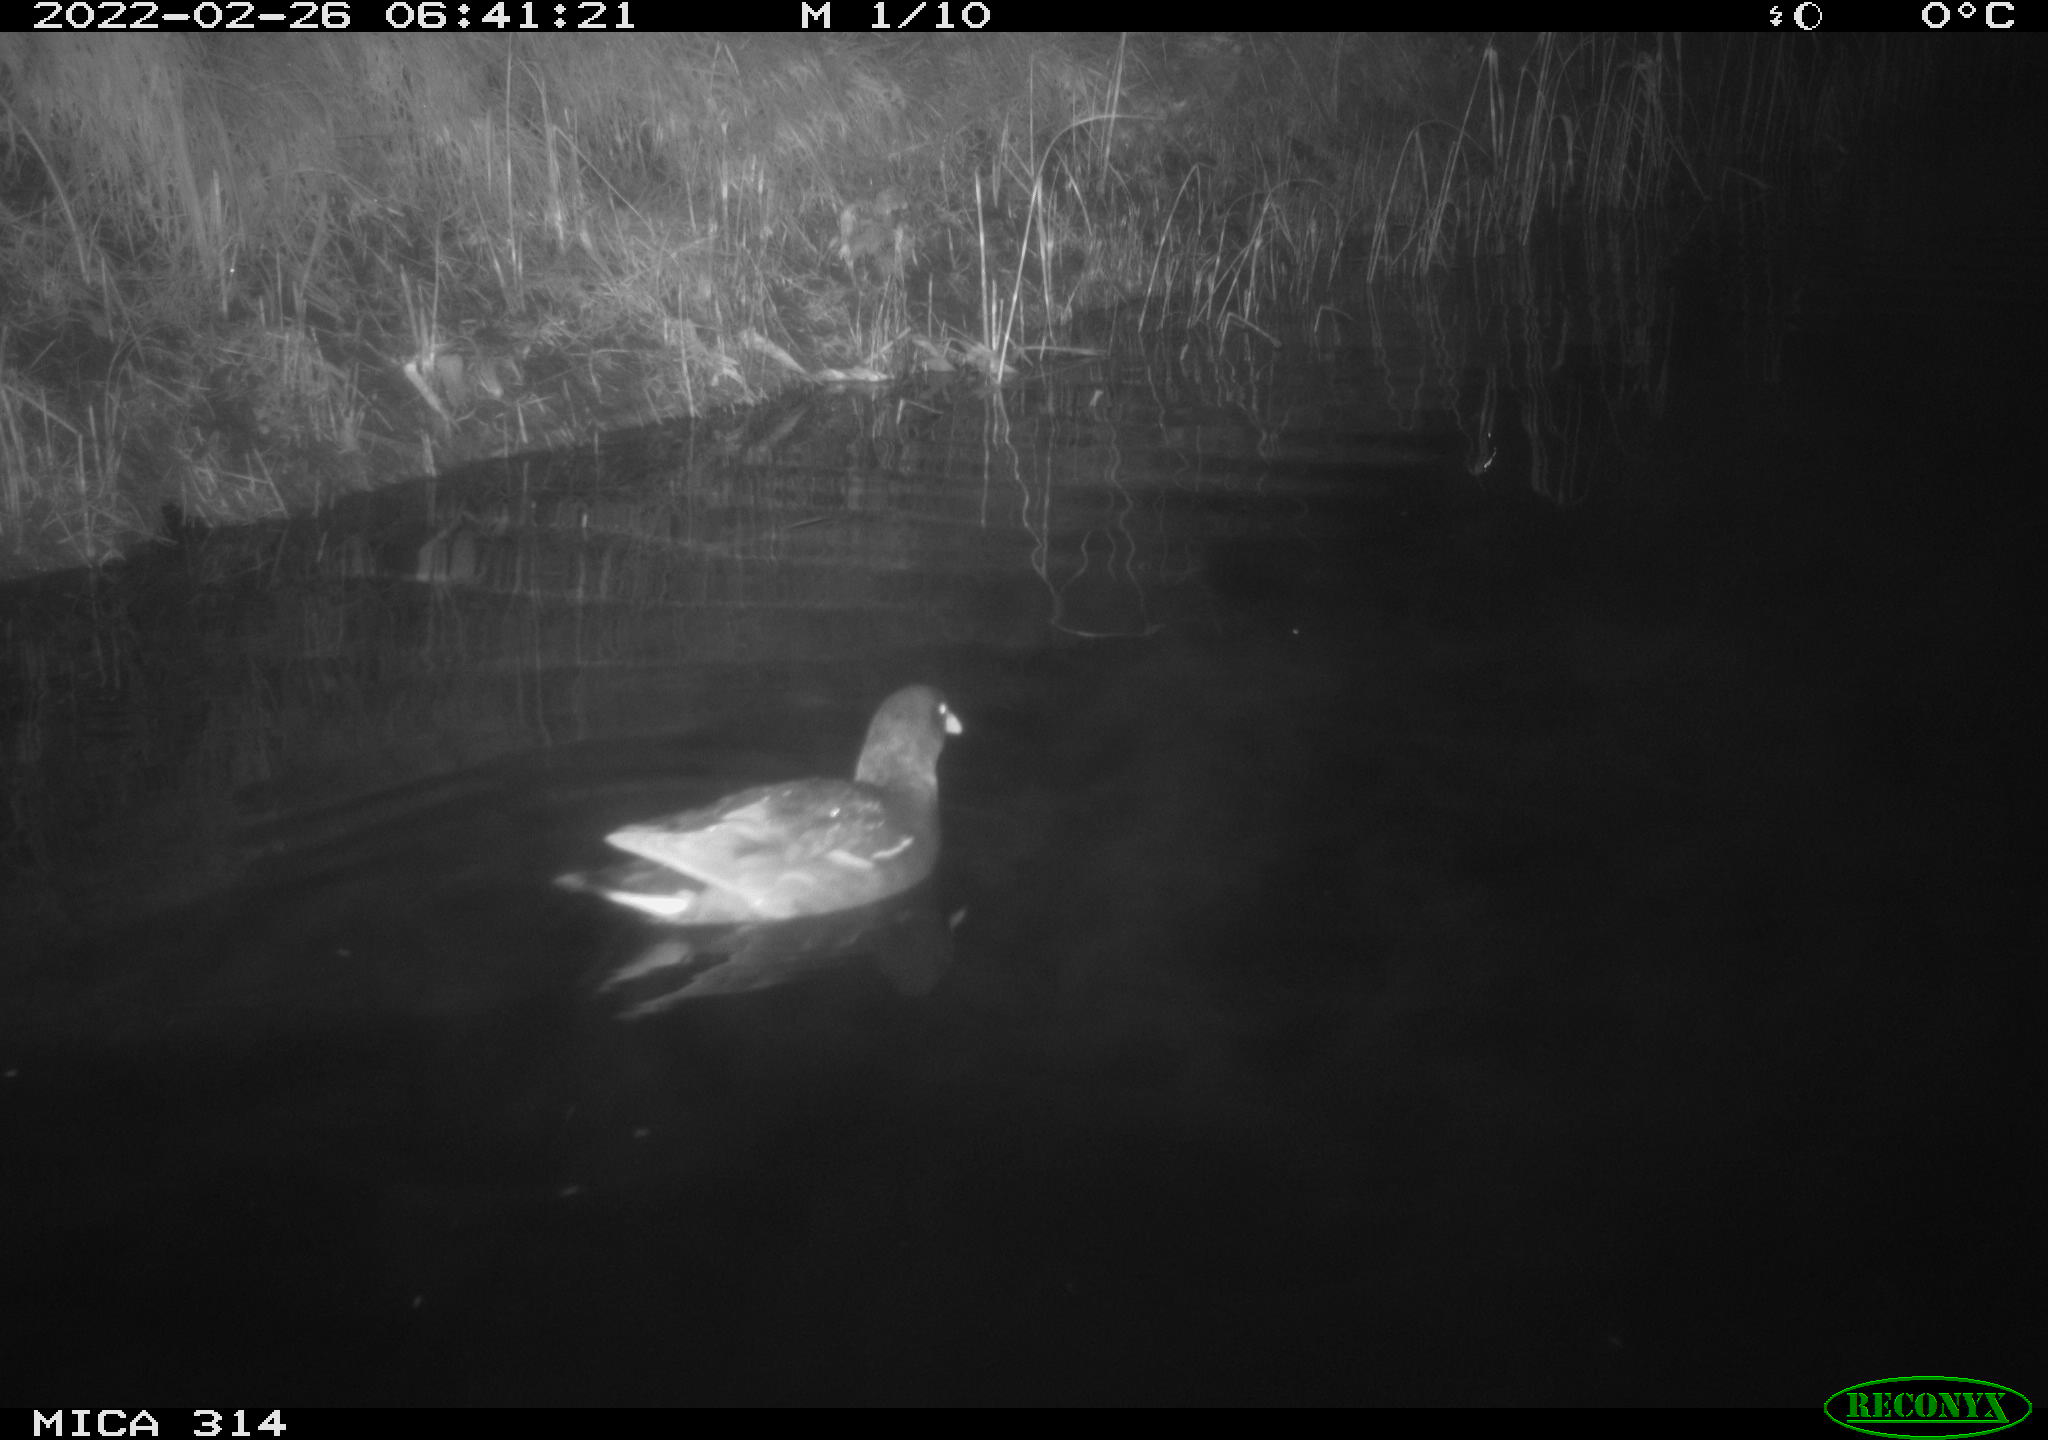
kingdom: Animalia
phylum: Chordata
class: Aves
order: Gruiformes
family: Rallidae
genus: Gallinula
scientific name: Gallinula chloropus
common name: Common moorhen
